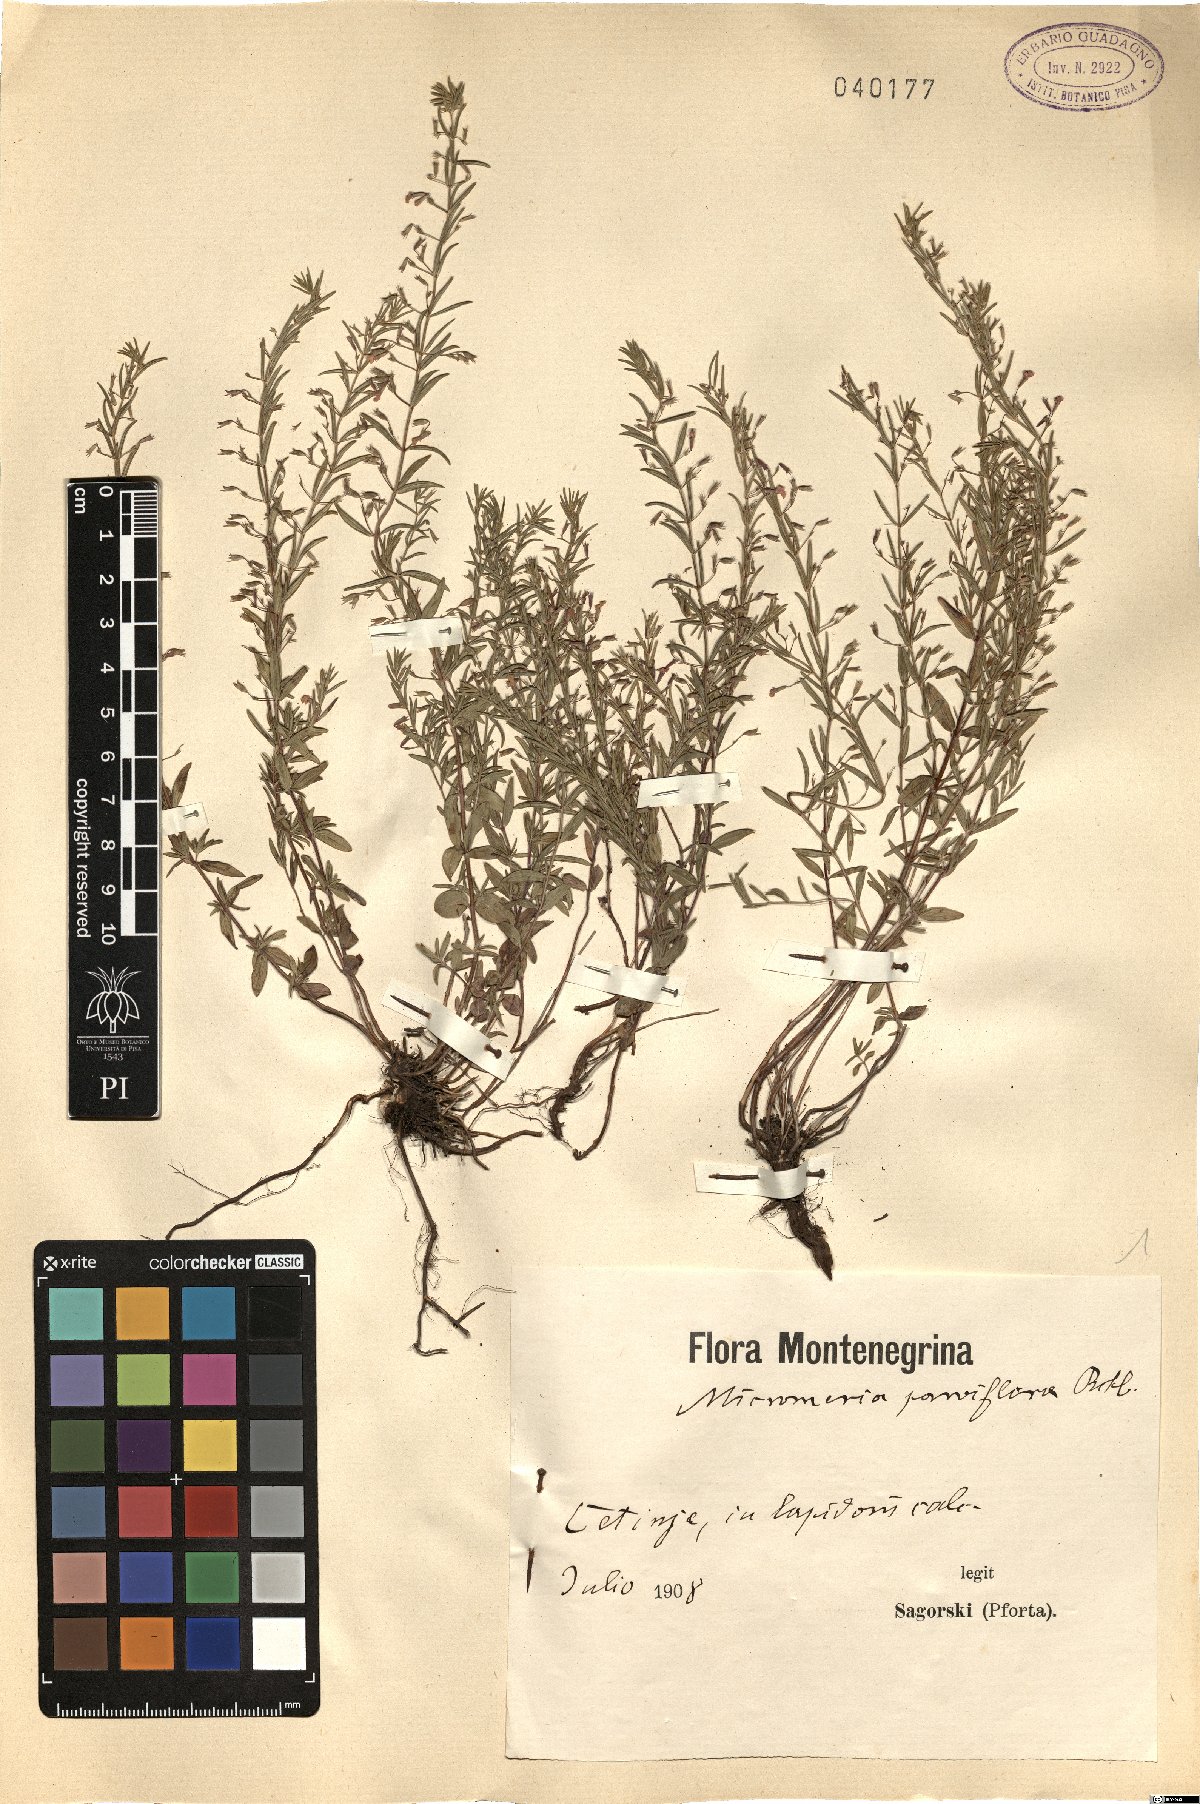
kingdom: Plantae
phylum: Tracheophyta
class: Magnoliopsida
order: Lamiales
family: Lamiaceae
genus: Micromeria
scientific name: Micromeria longipedunculata
